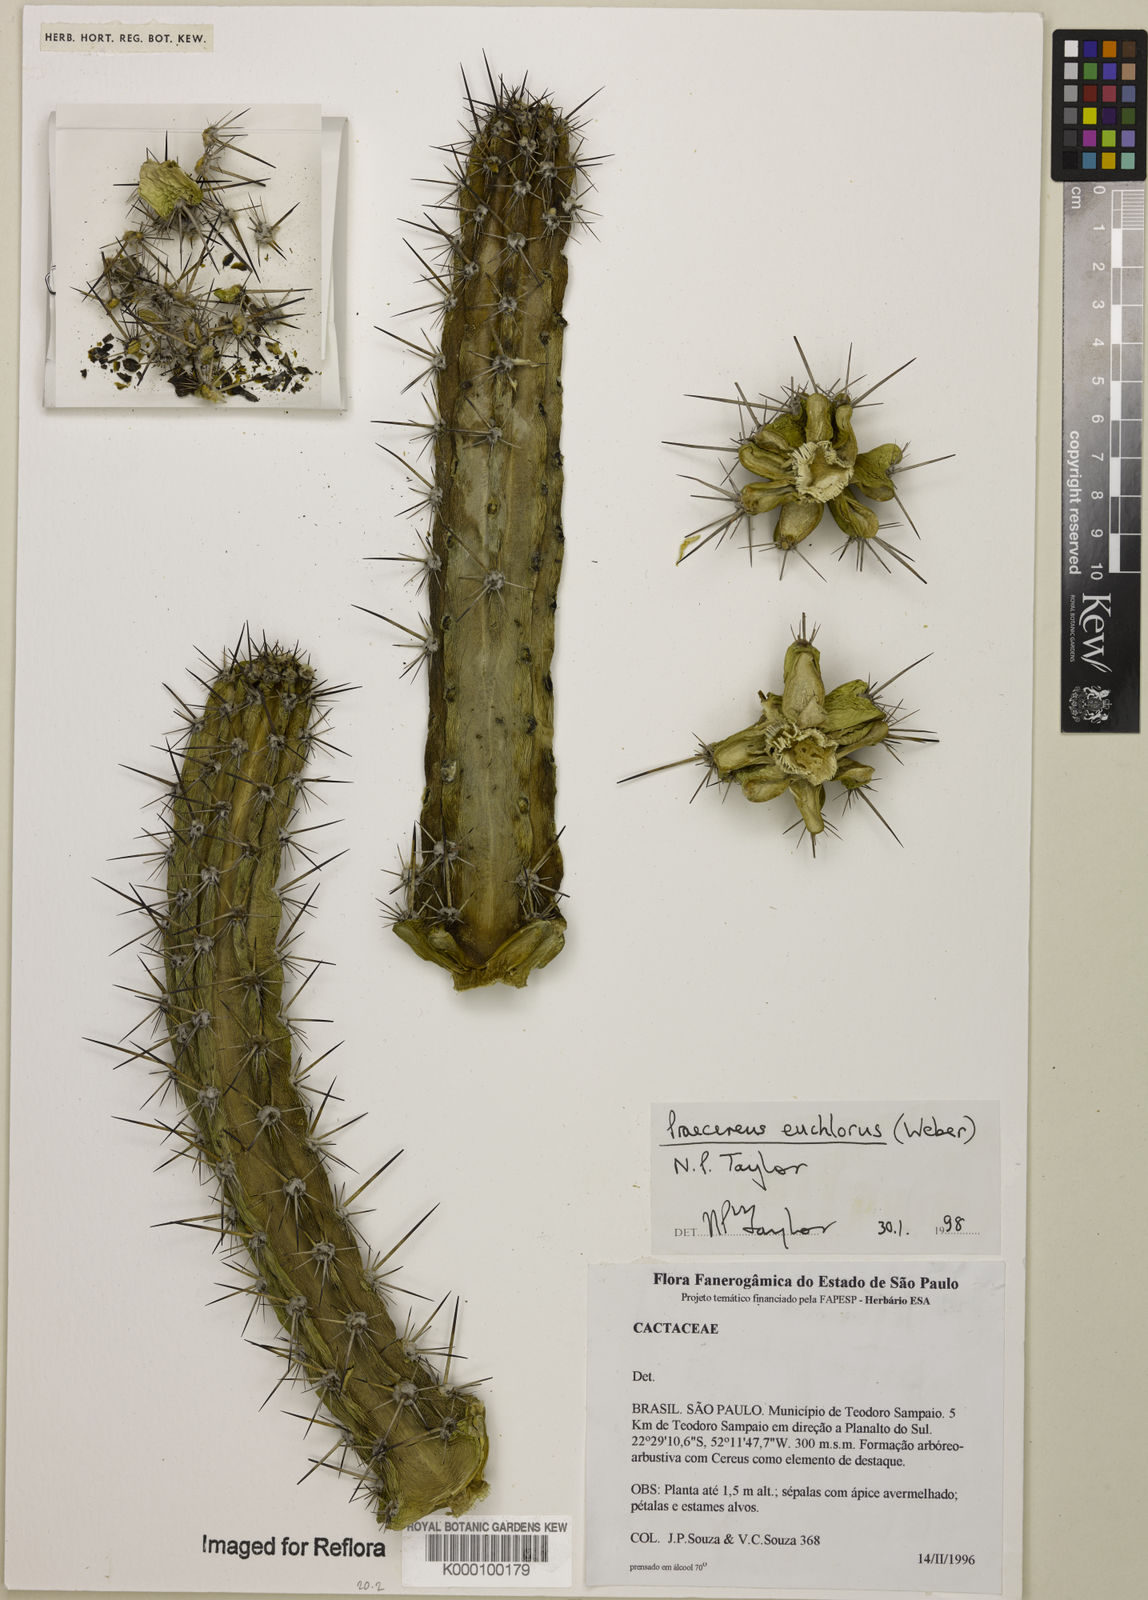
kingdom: Plantae
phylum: Tracheophyta
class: Magnoliopsida
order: Caryophyllales
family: Cactaceae
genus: Praecereus
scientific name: Praecereus euchlorus
